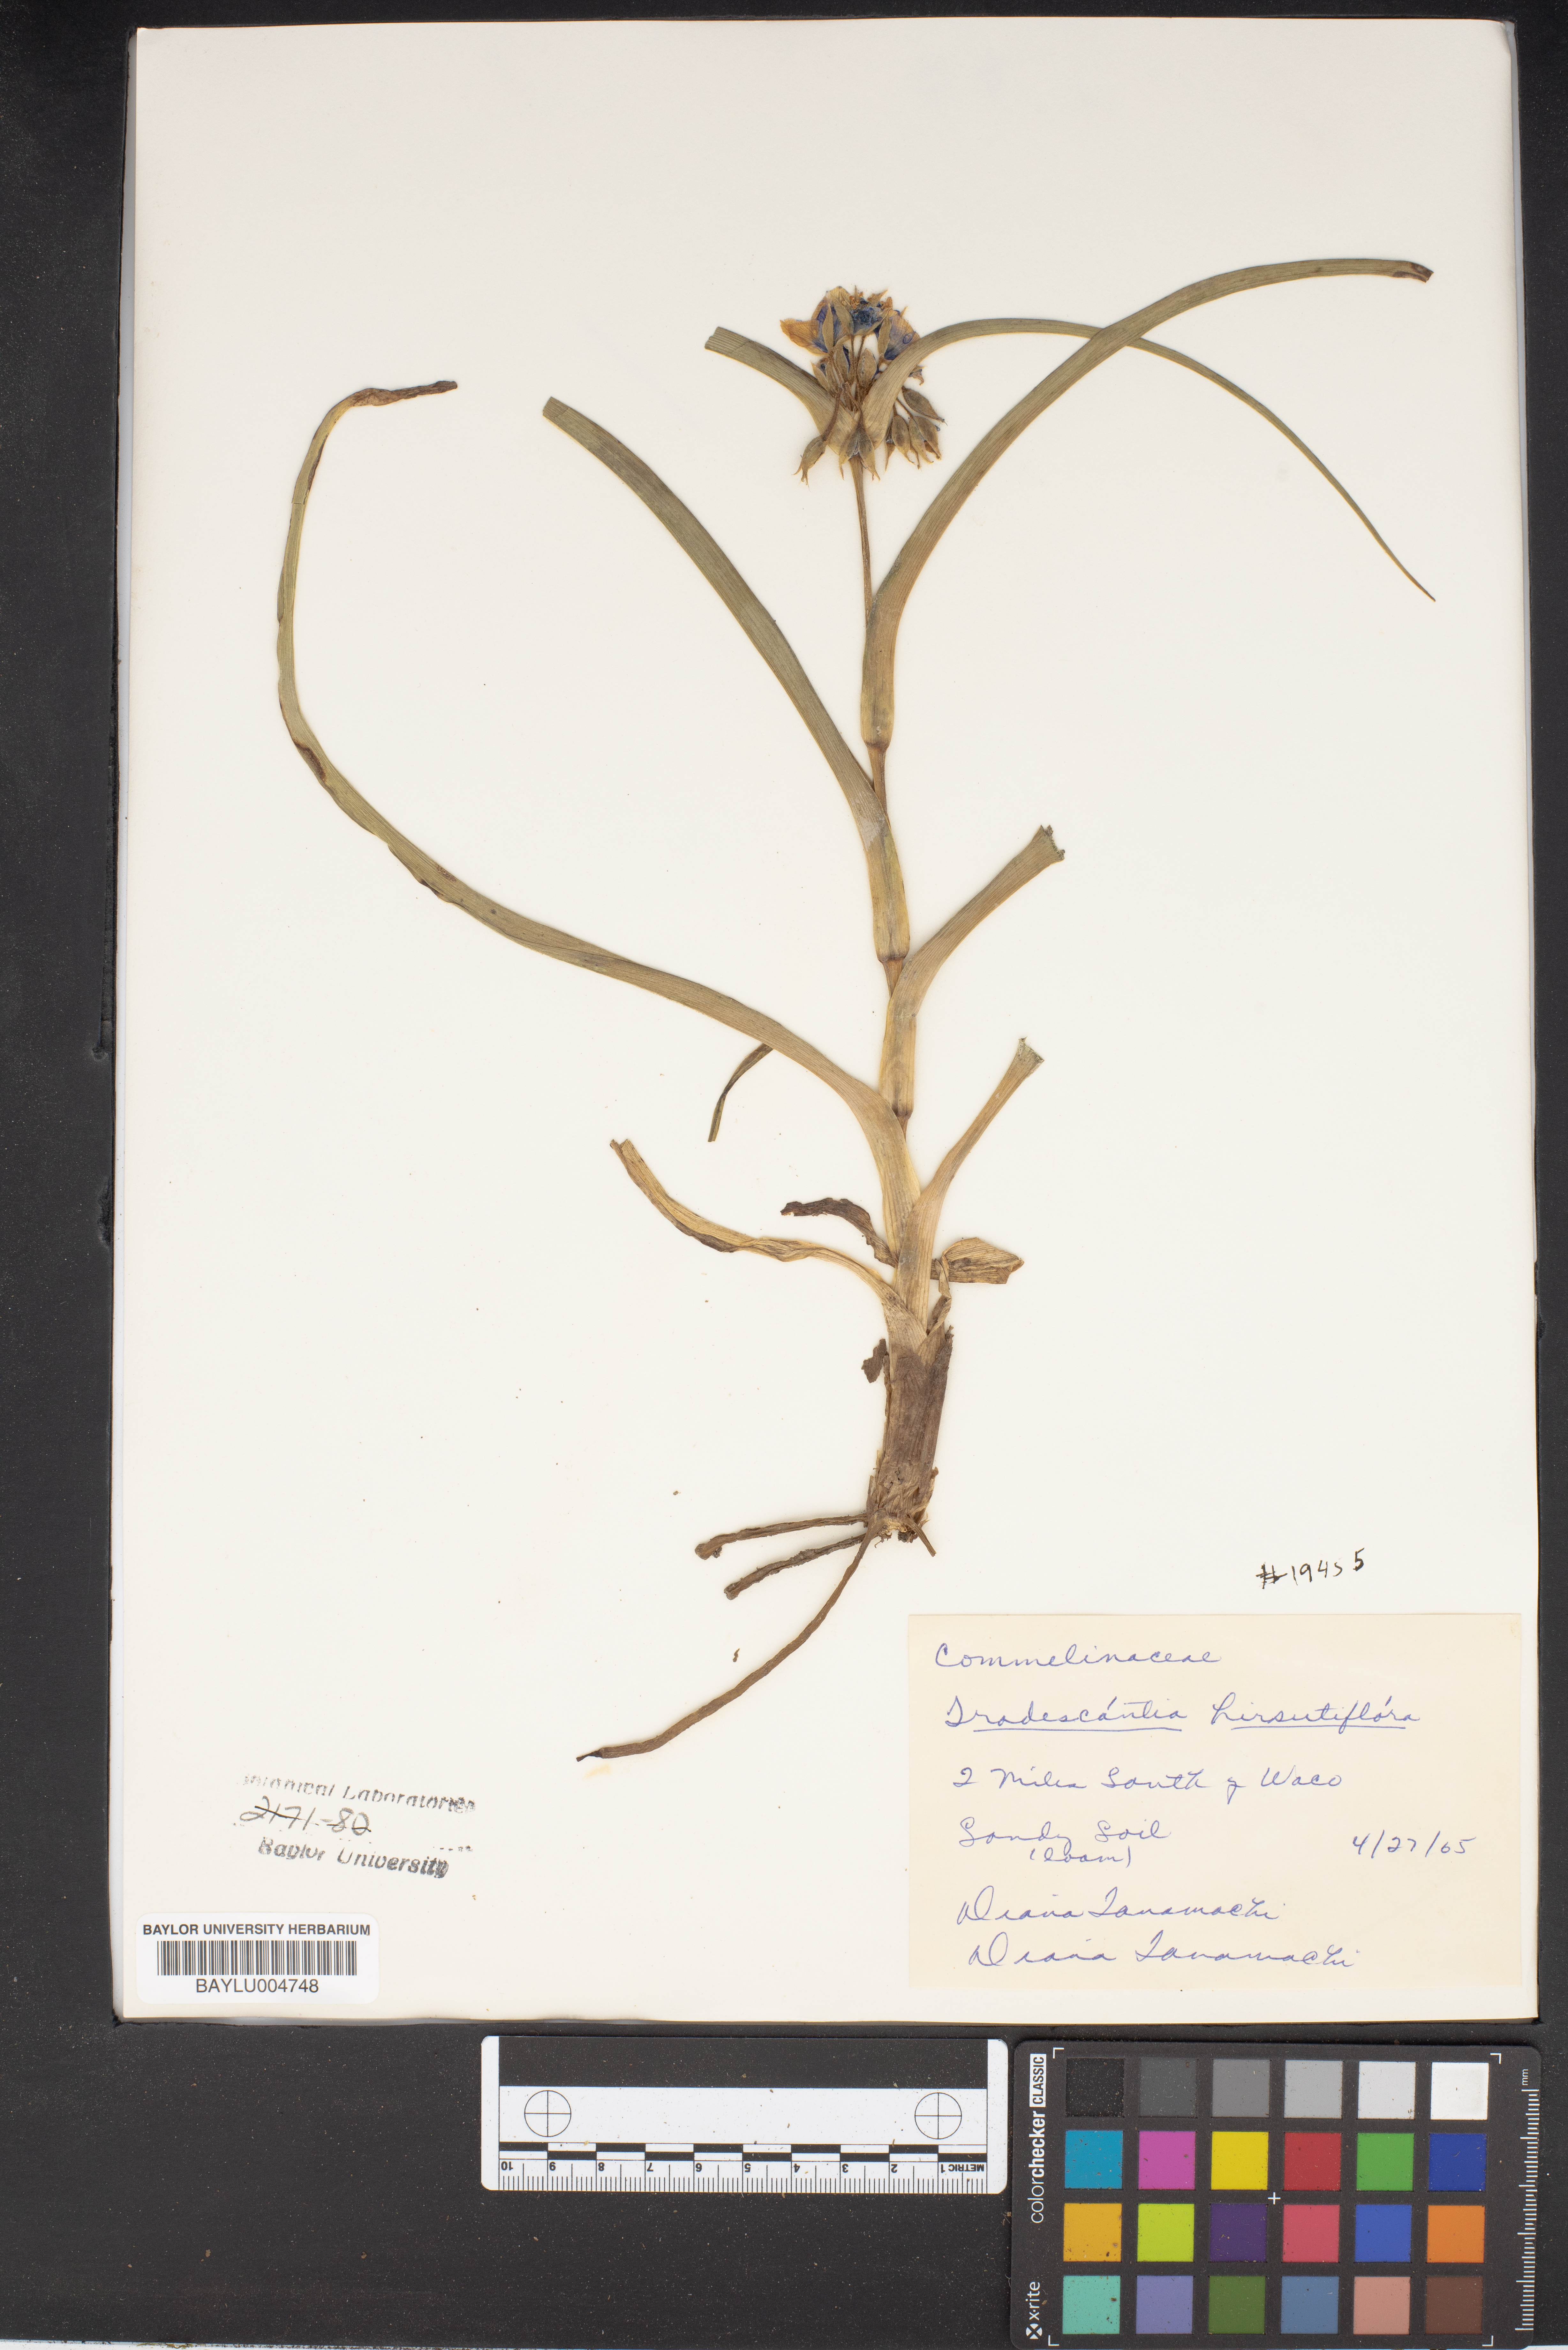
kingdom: Plantae
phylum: Tracheophyta
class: Liliopsida
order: Commelinales
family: Commelinaceae
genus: Tradescantia
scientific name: Tradescantia hirsutiflora
